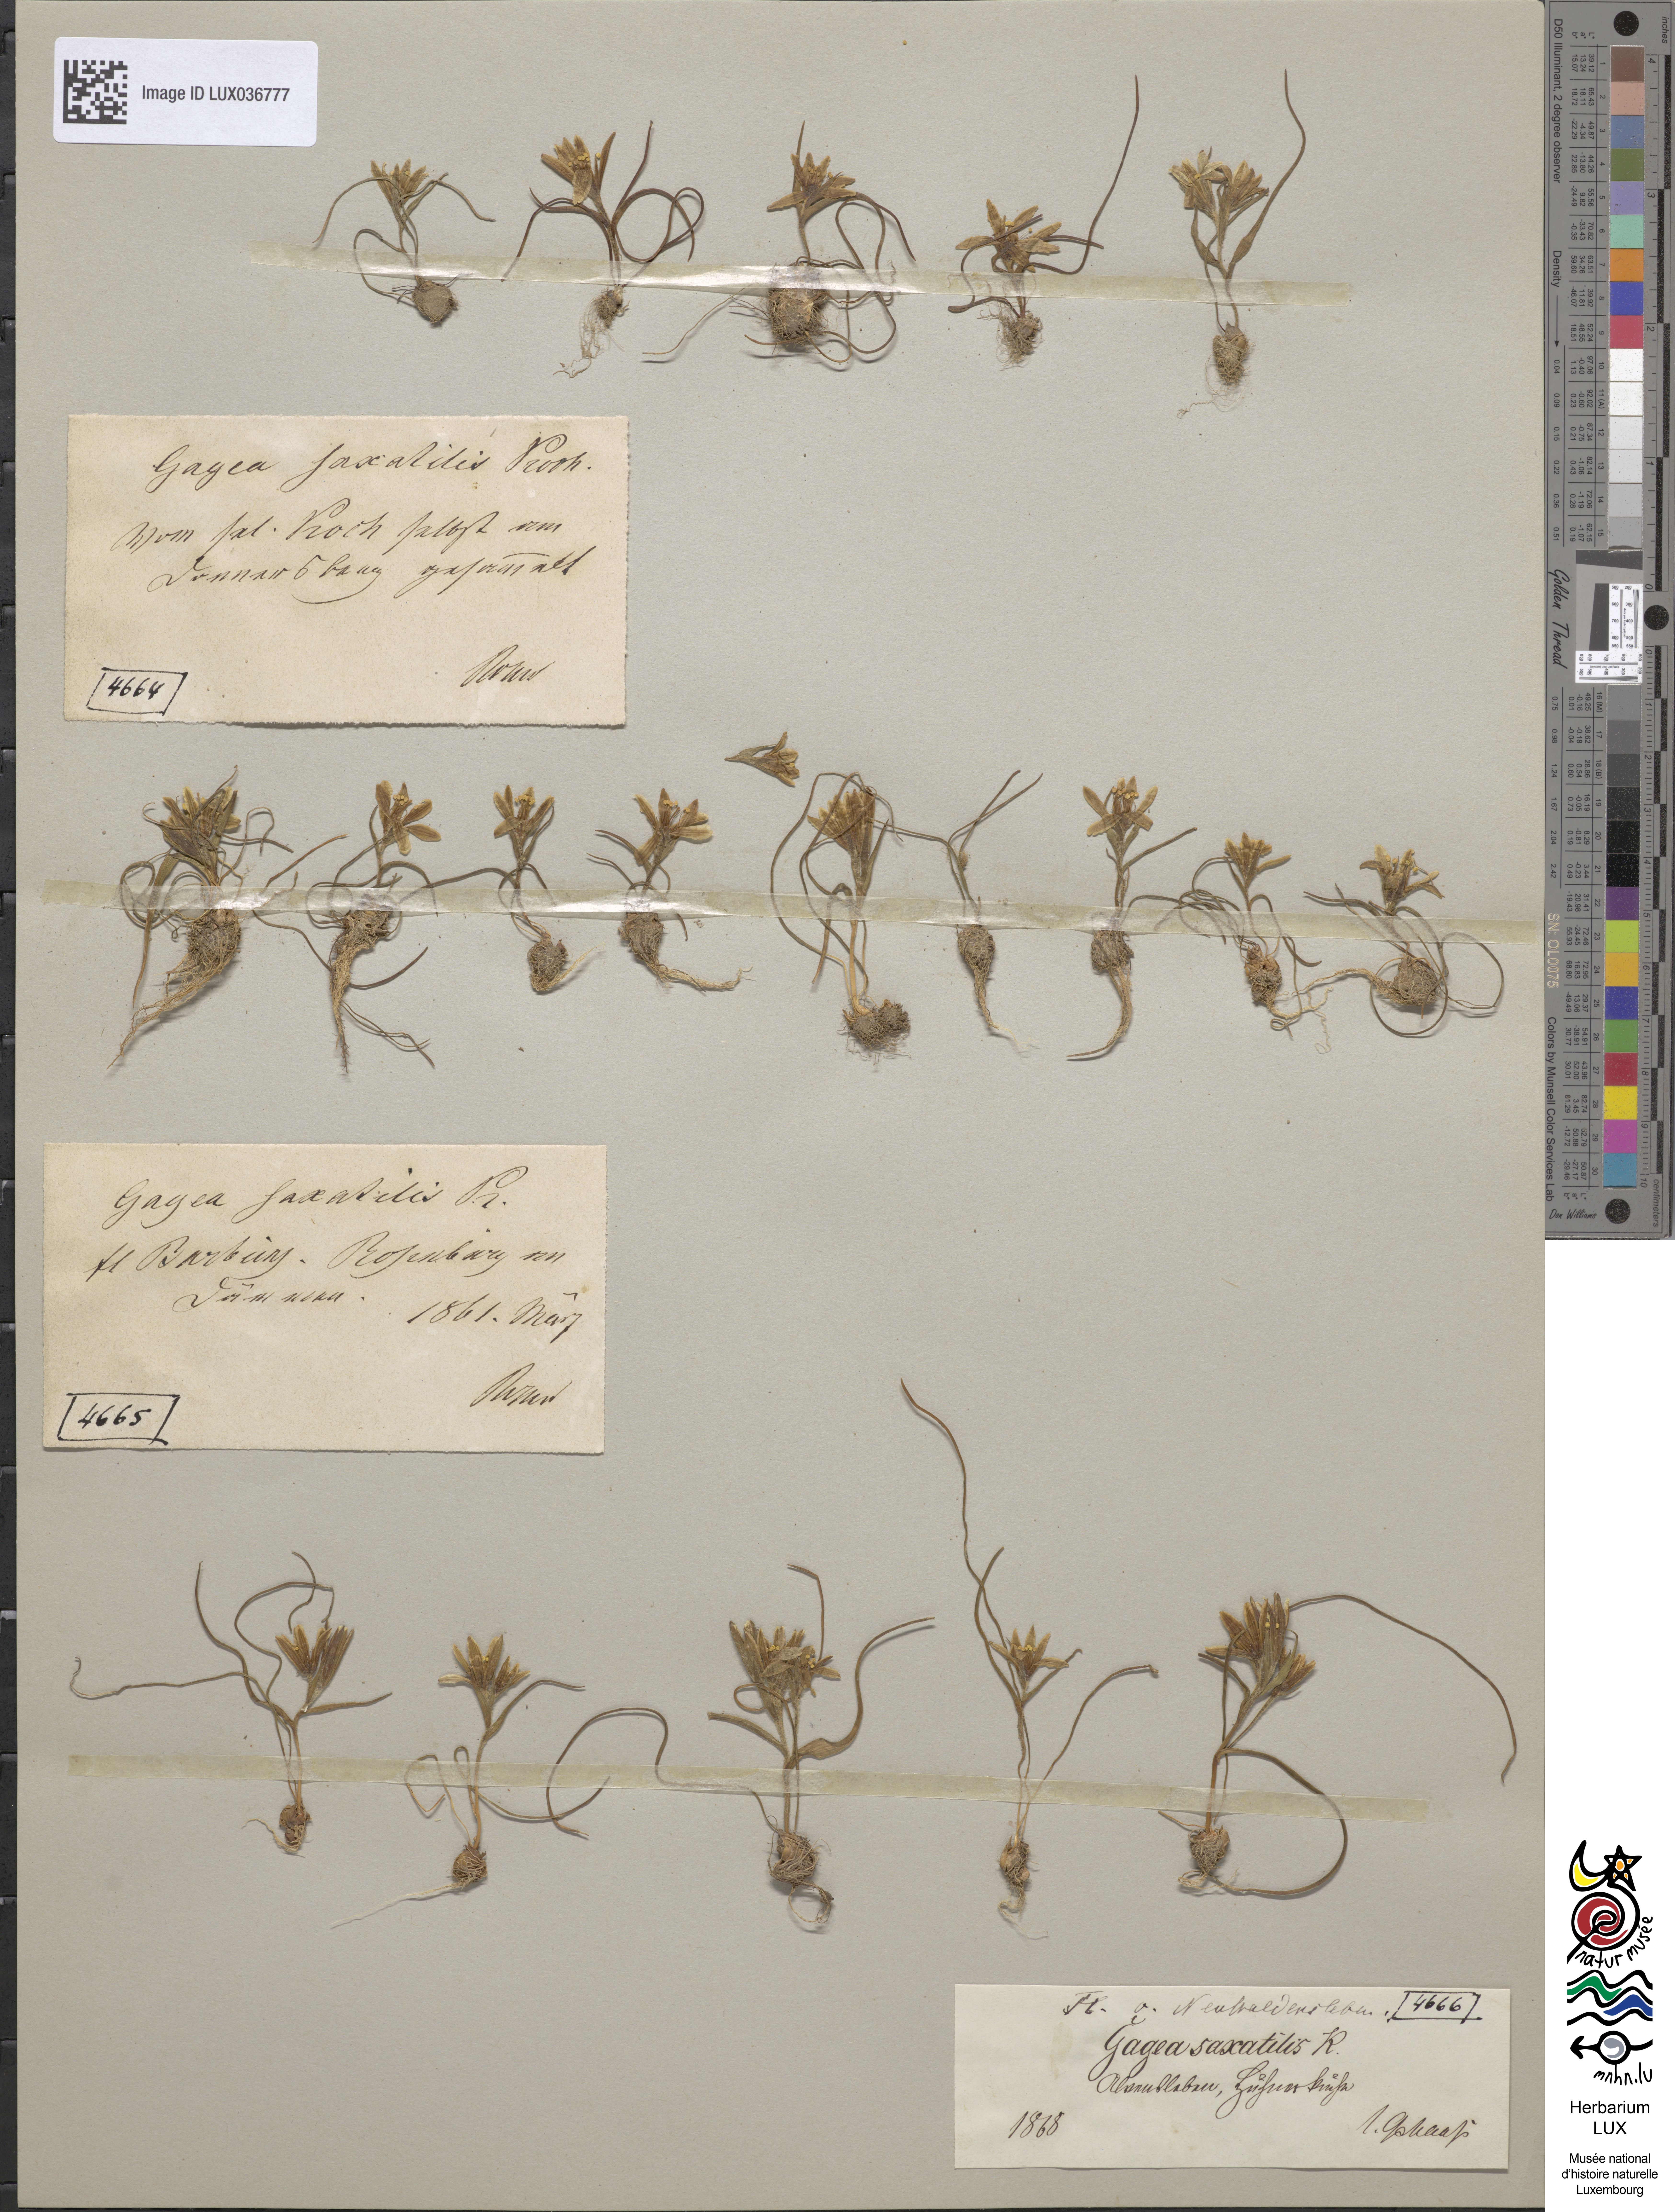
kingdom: Plantae
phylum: Tracheophyta
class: Liliopsida
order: Liliales
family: Liliaceae
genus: Gagea
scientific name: Gagea bohemica
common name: Early star-of-bethlehem
